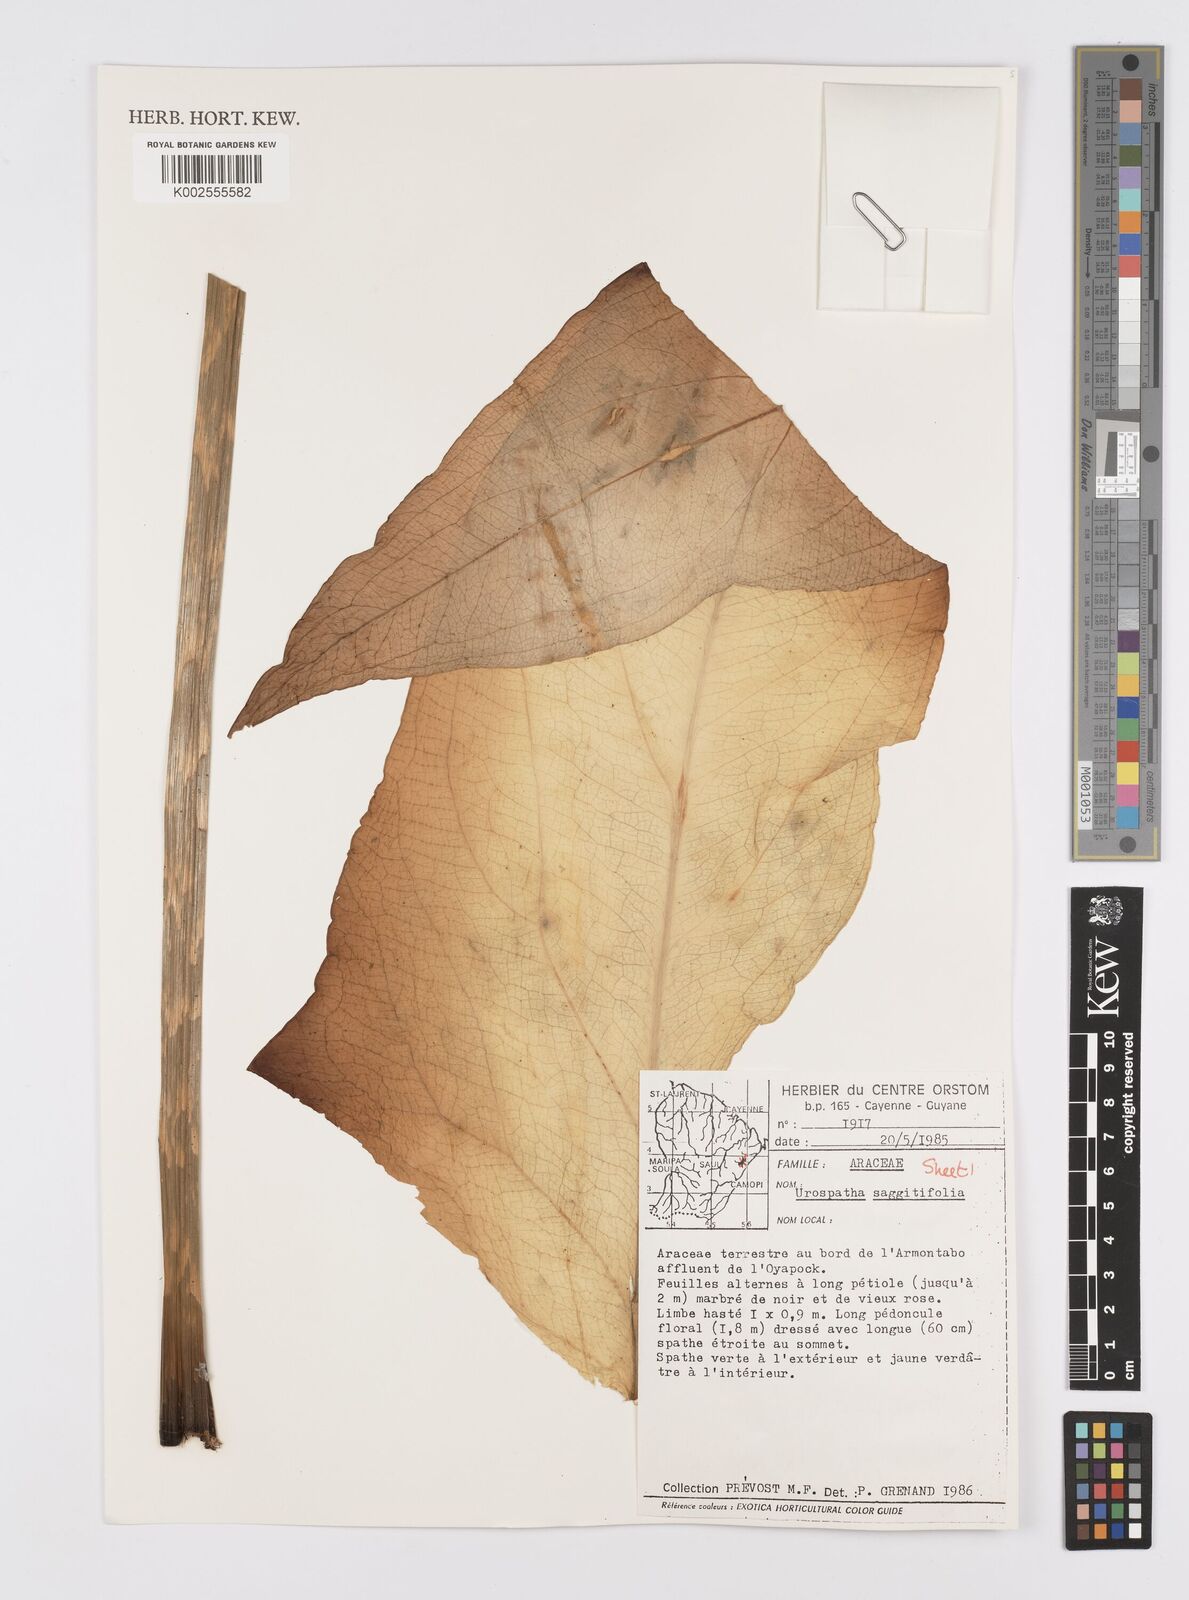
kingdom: Plantae
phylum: Tracheophyta
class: Liliopsida
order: Alismatales
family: Araceae
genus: Urospatha
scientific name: Urospatha sagittifolia
